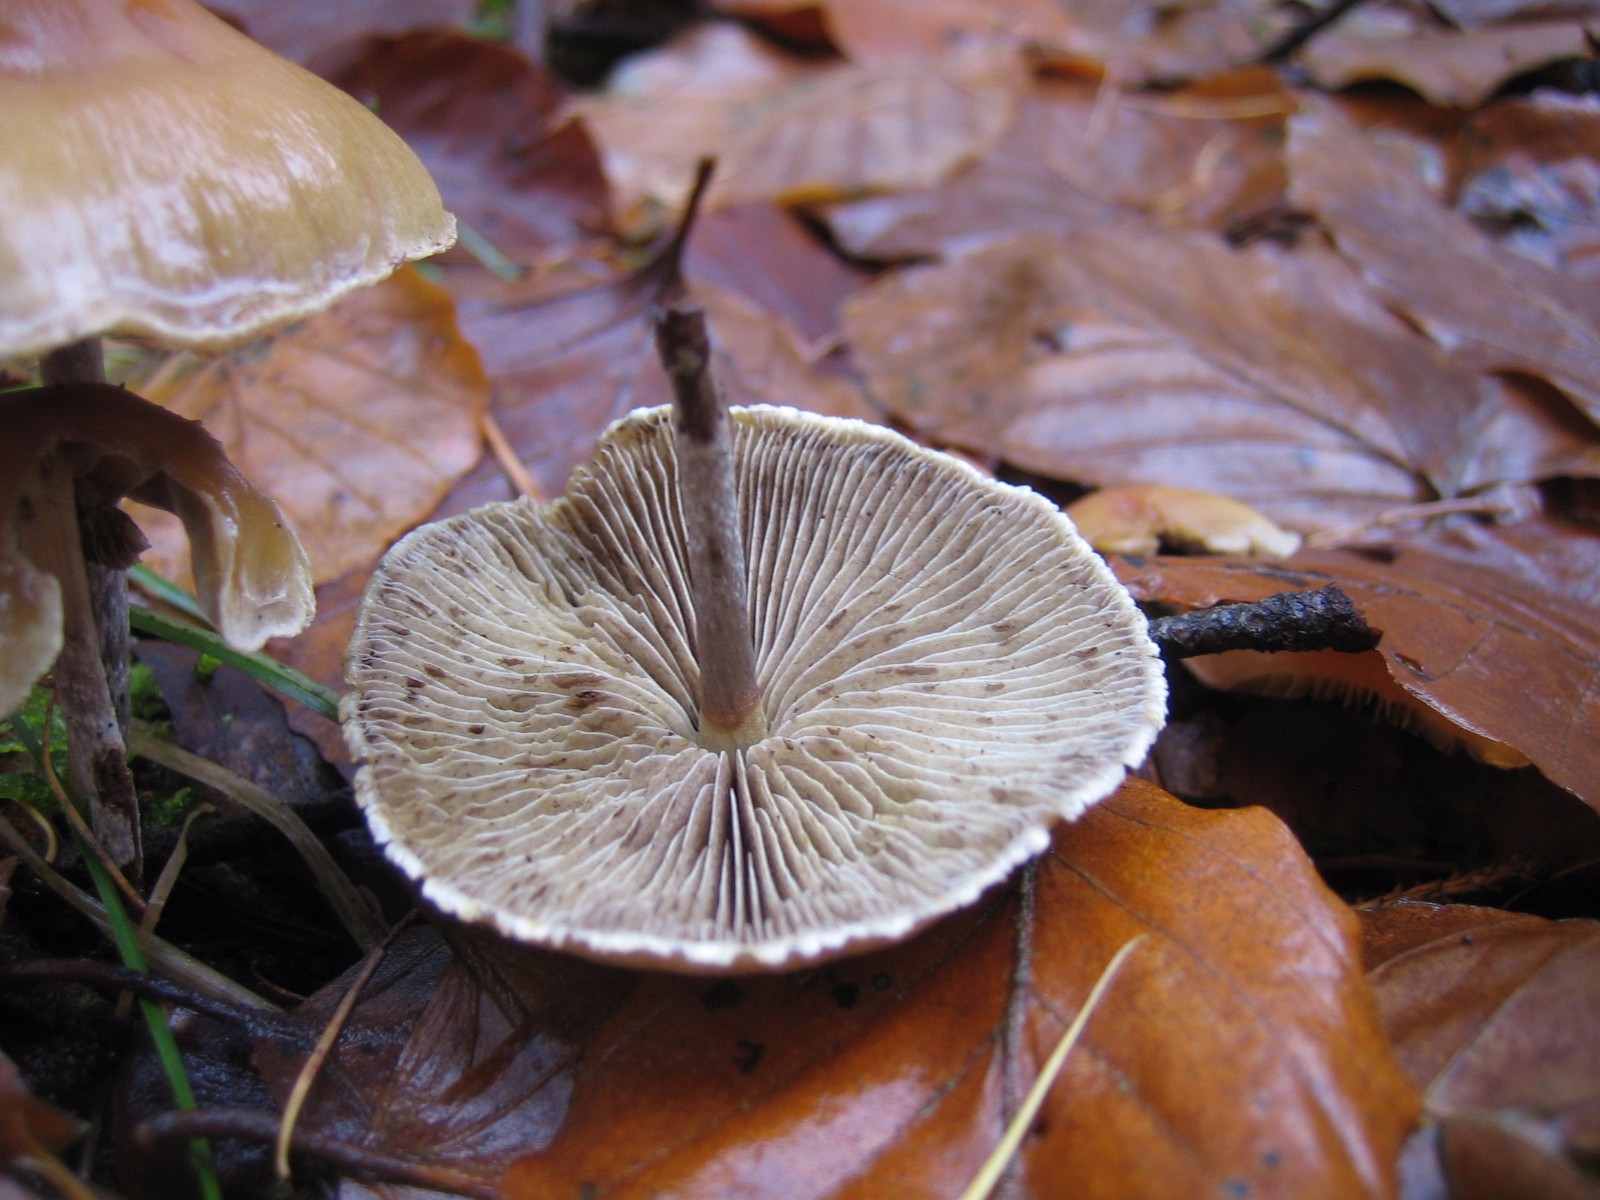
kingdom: Fungi
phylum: Basidiomycota
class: Agaricomycetes
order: Agaricales
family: Strophariaceae
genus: Hypholoma
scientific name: Hypholoma marginatum
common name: enlig svovlhat
